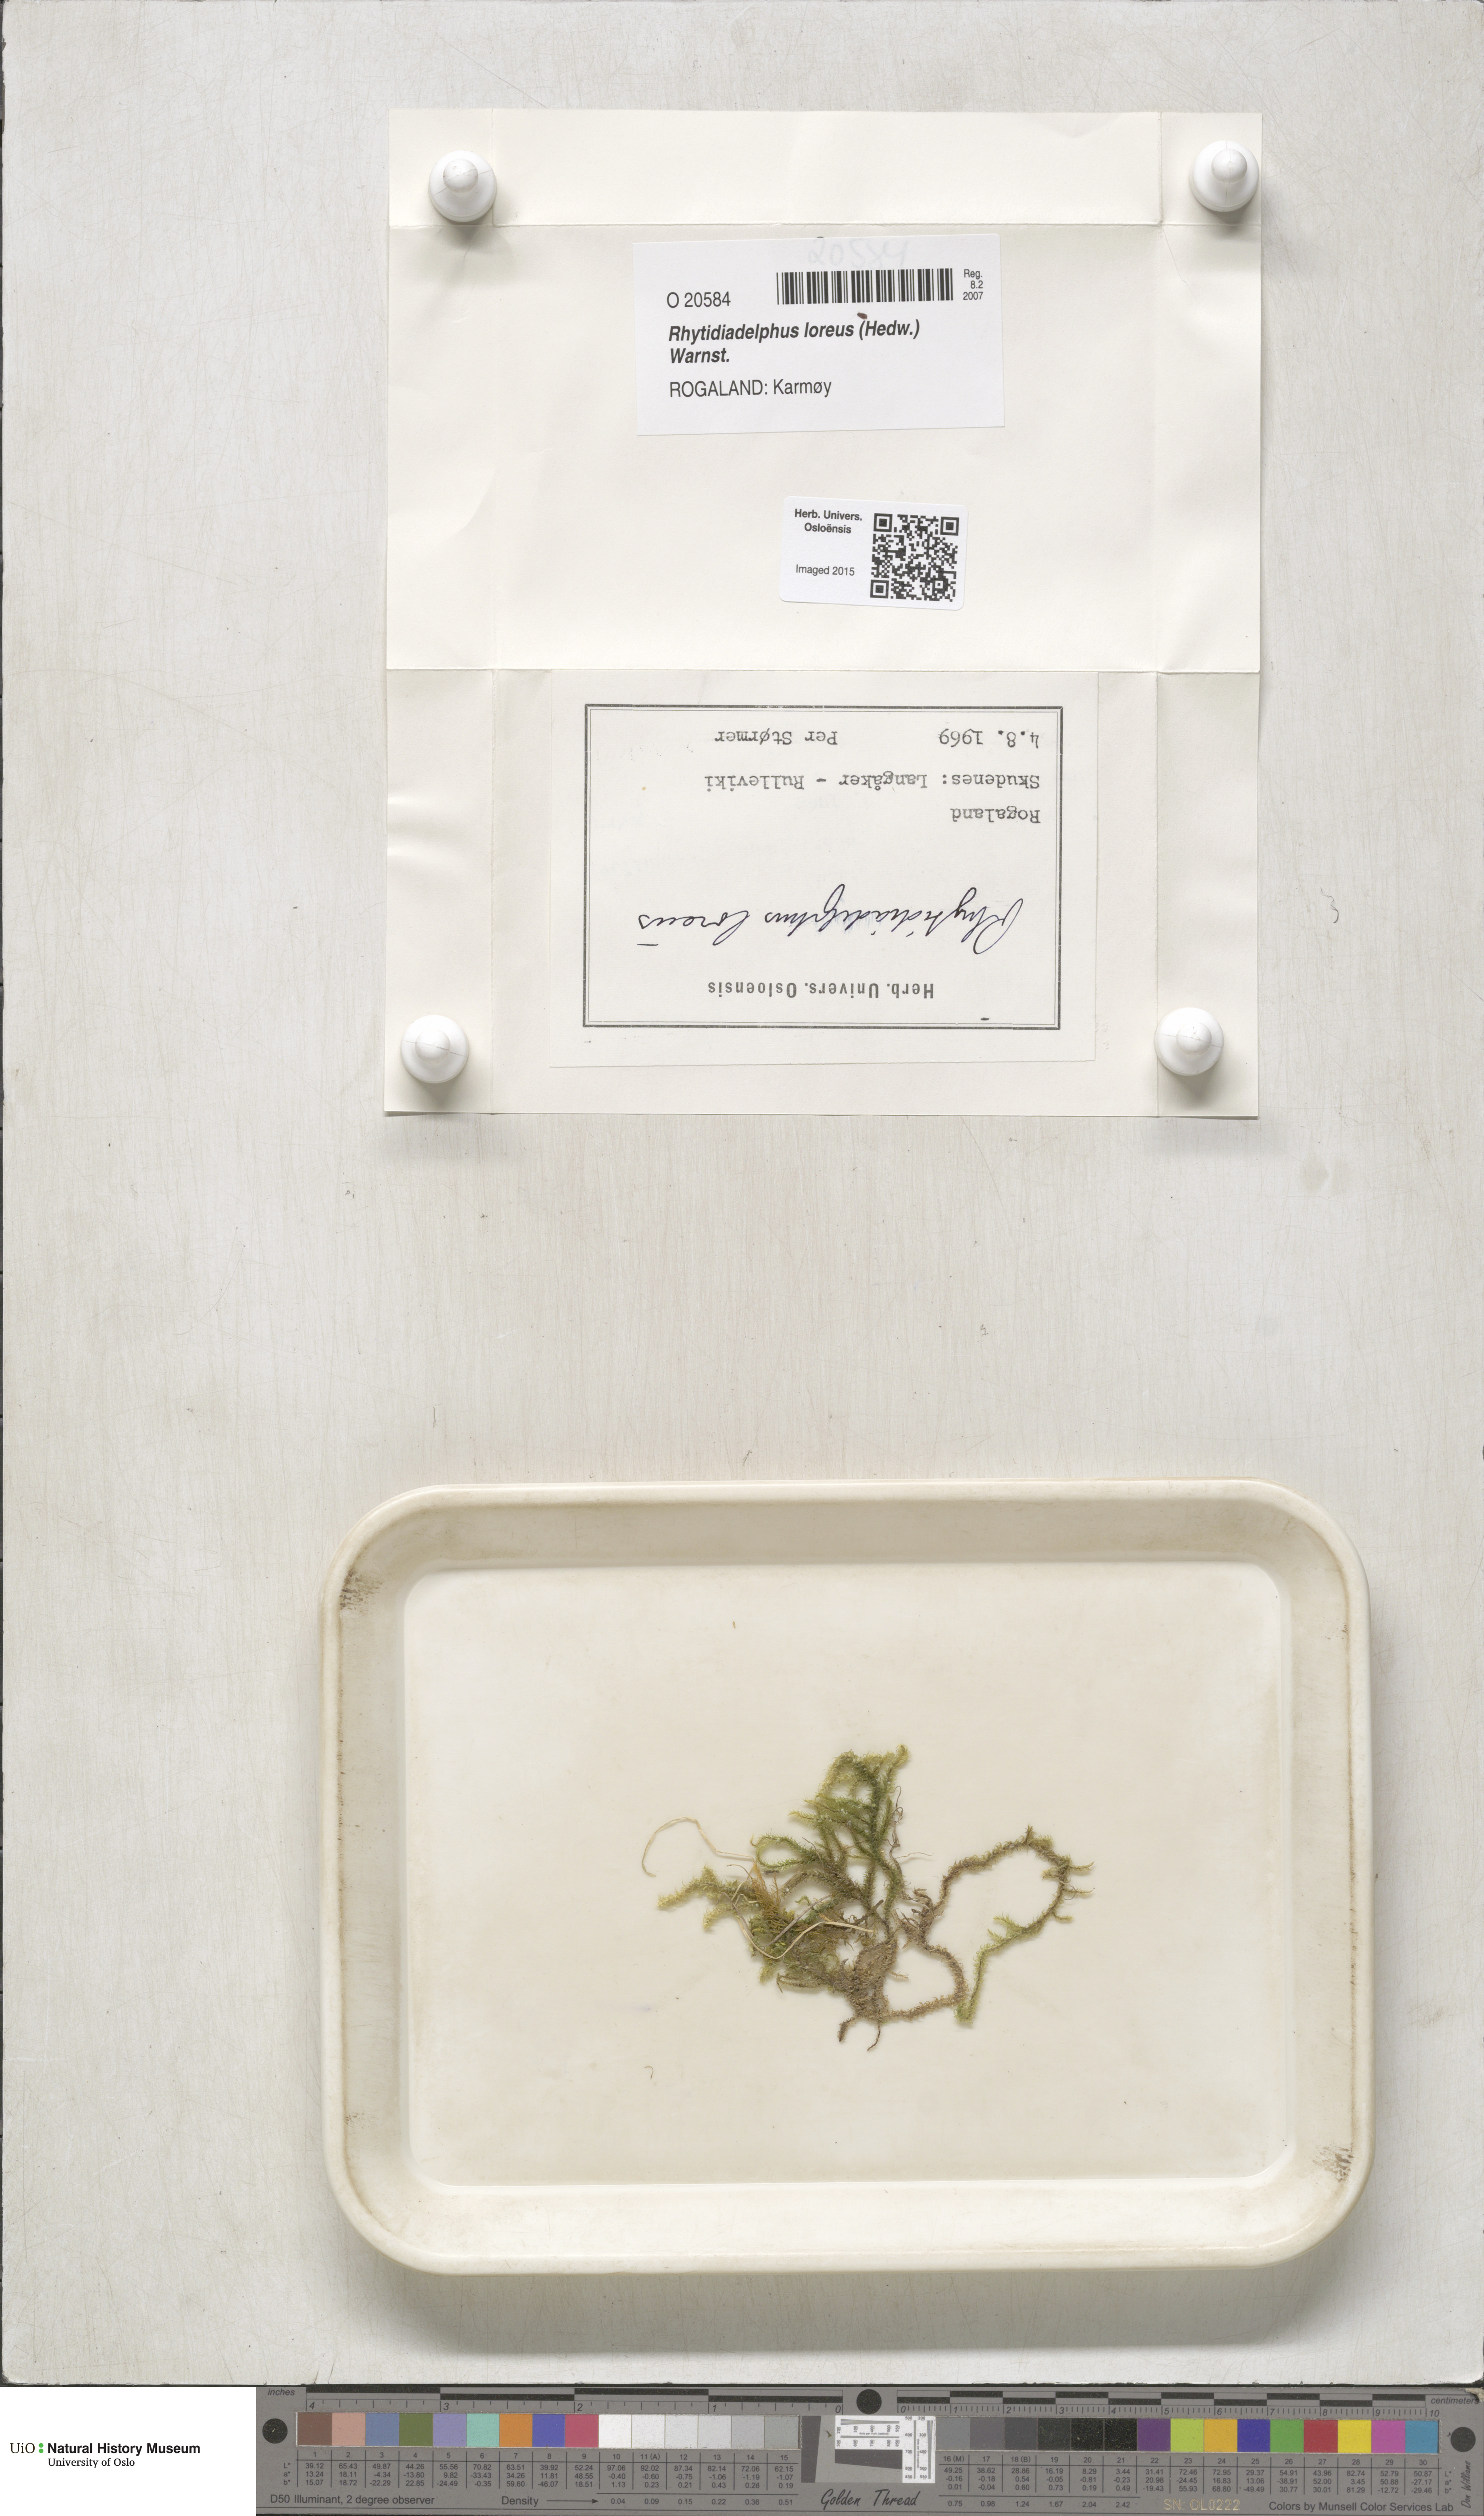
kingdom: Plantae
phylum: Bryophyta
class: Bryopsida
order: Hypnales
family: Hylocomiaceae
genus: Rhytidiadelphus
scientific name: Rhytidiadelphus loreus
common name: Lanky moss
